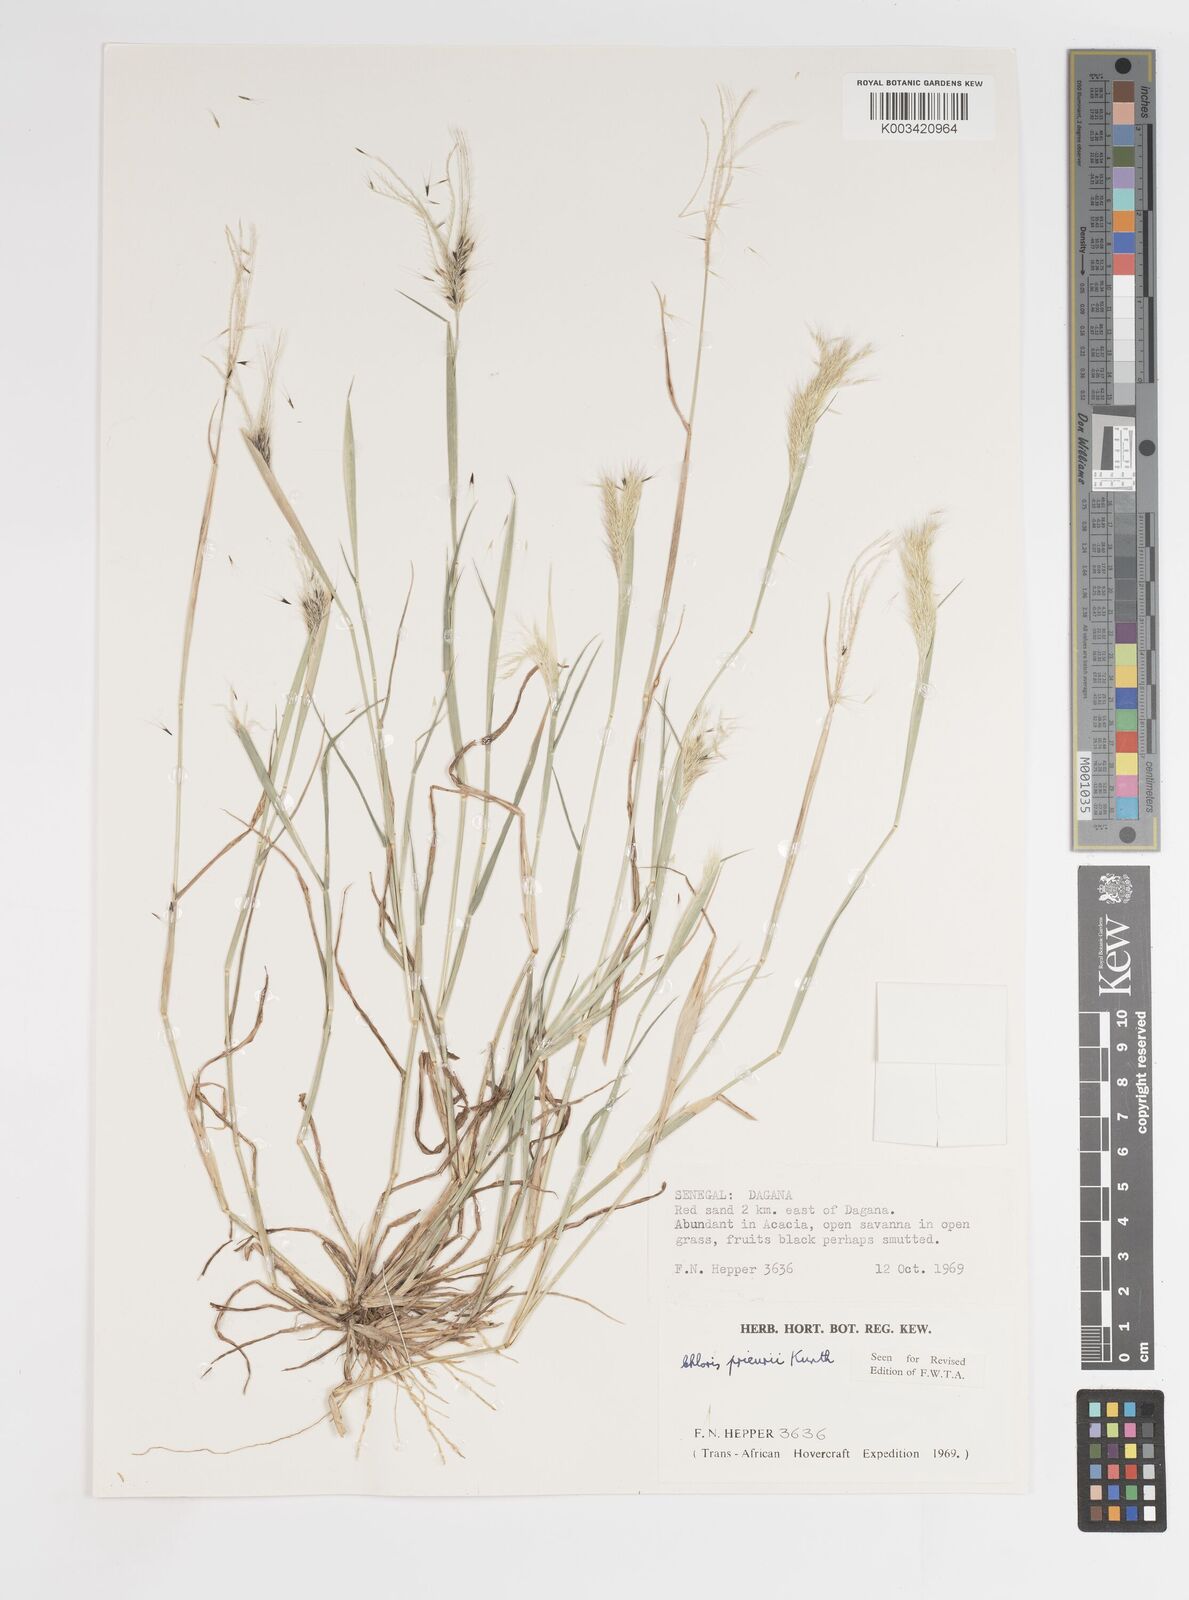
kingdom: Plantae
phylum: Tracheophyta
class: Liliopsida
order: Poales
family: Poaceae
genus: Enteropogon
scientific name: Enteropogon prieurii
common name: Prieur's umbrellagrass
